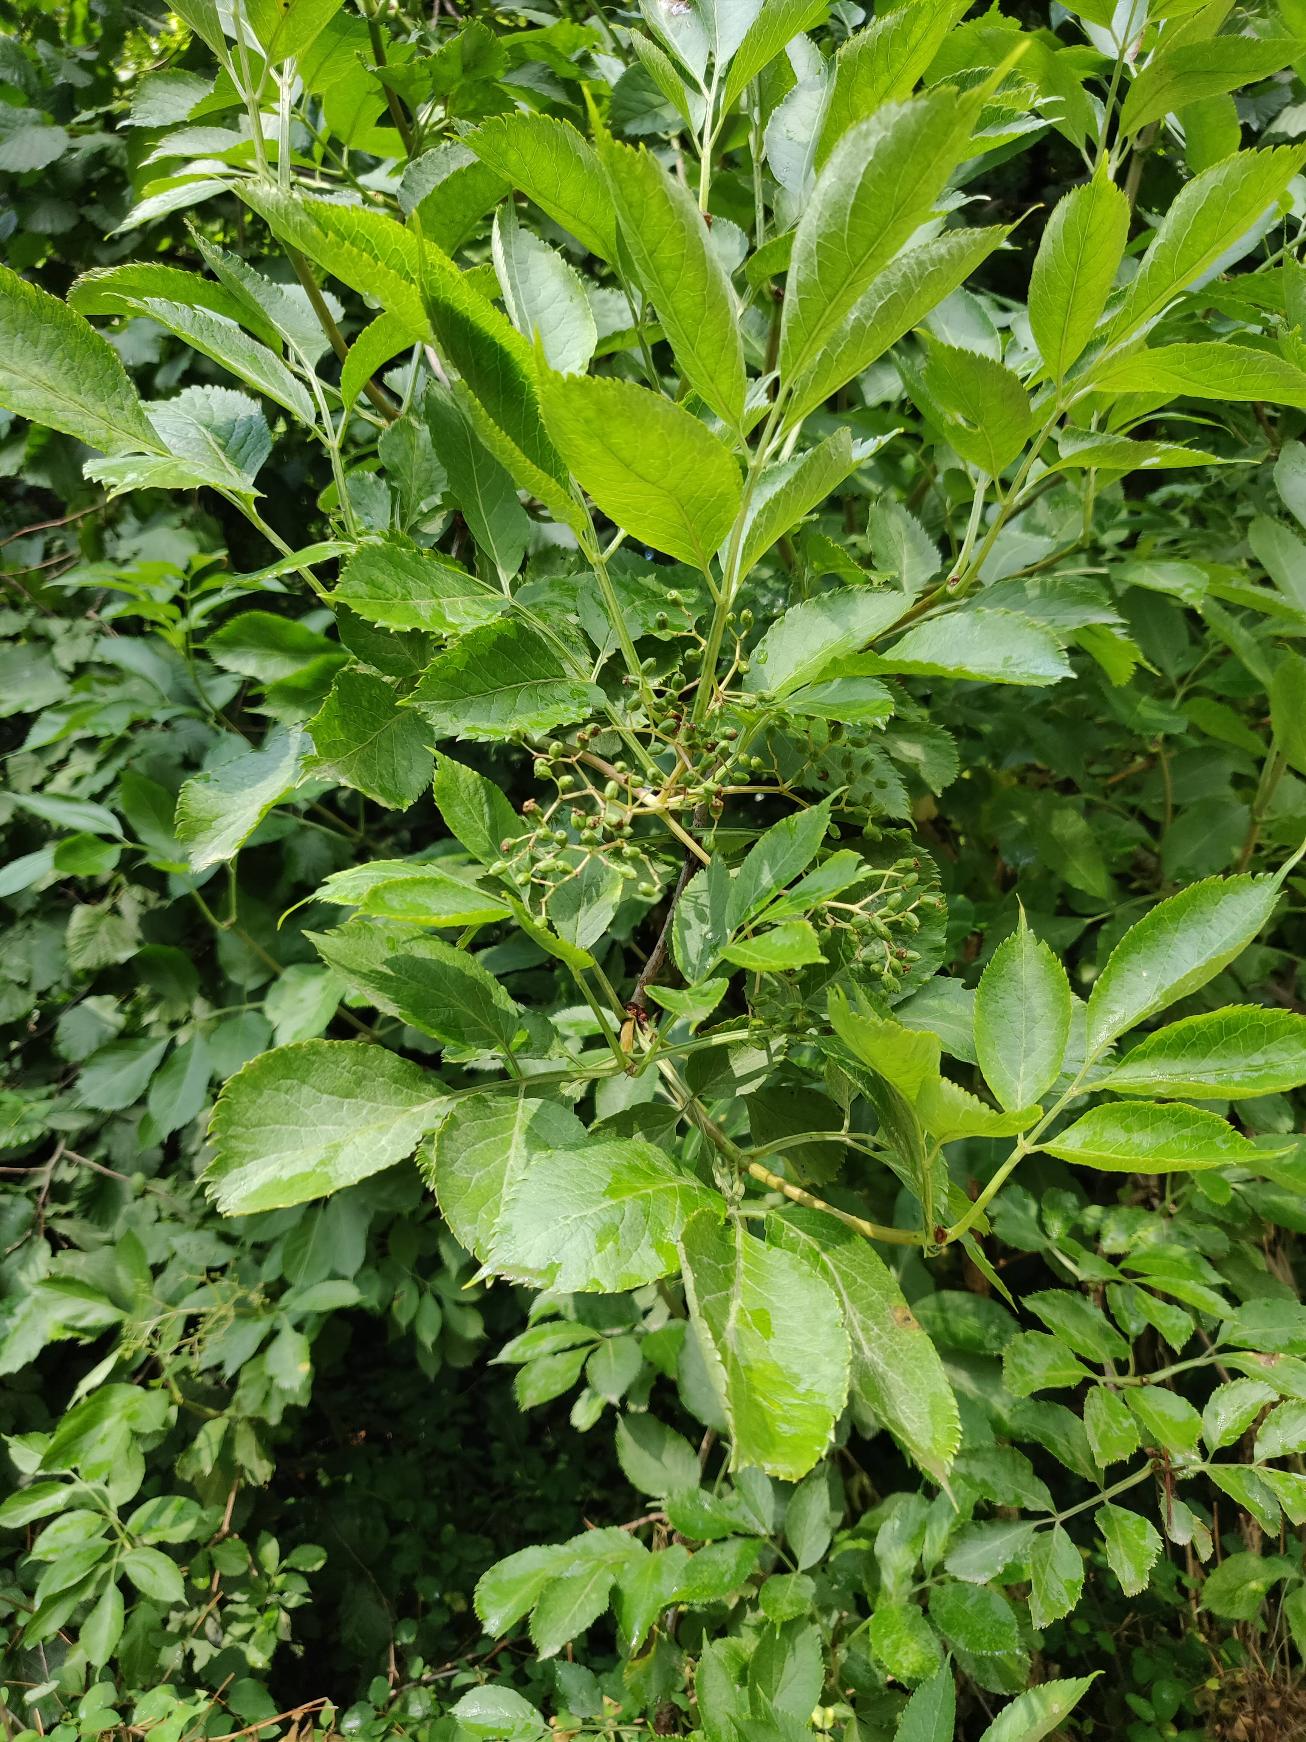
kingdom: Plantae
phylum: Tracheophyta
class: Magnoliopsida
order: Dipsacales
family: Viburnaceae
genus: Sambucus
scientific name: Sambucus nigra
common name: Almindelig hyld
